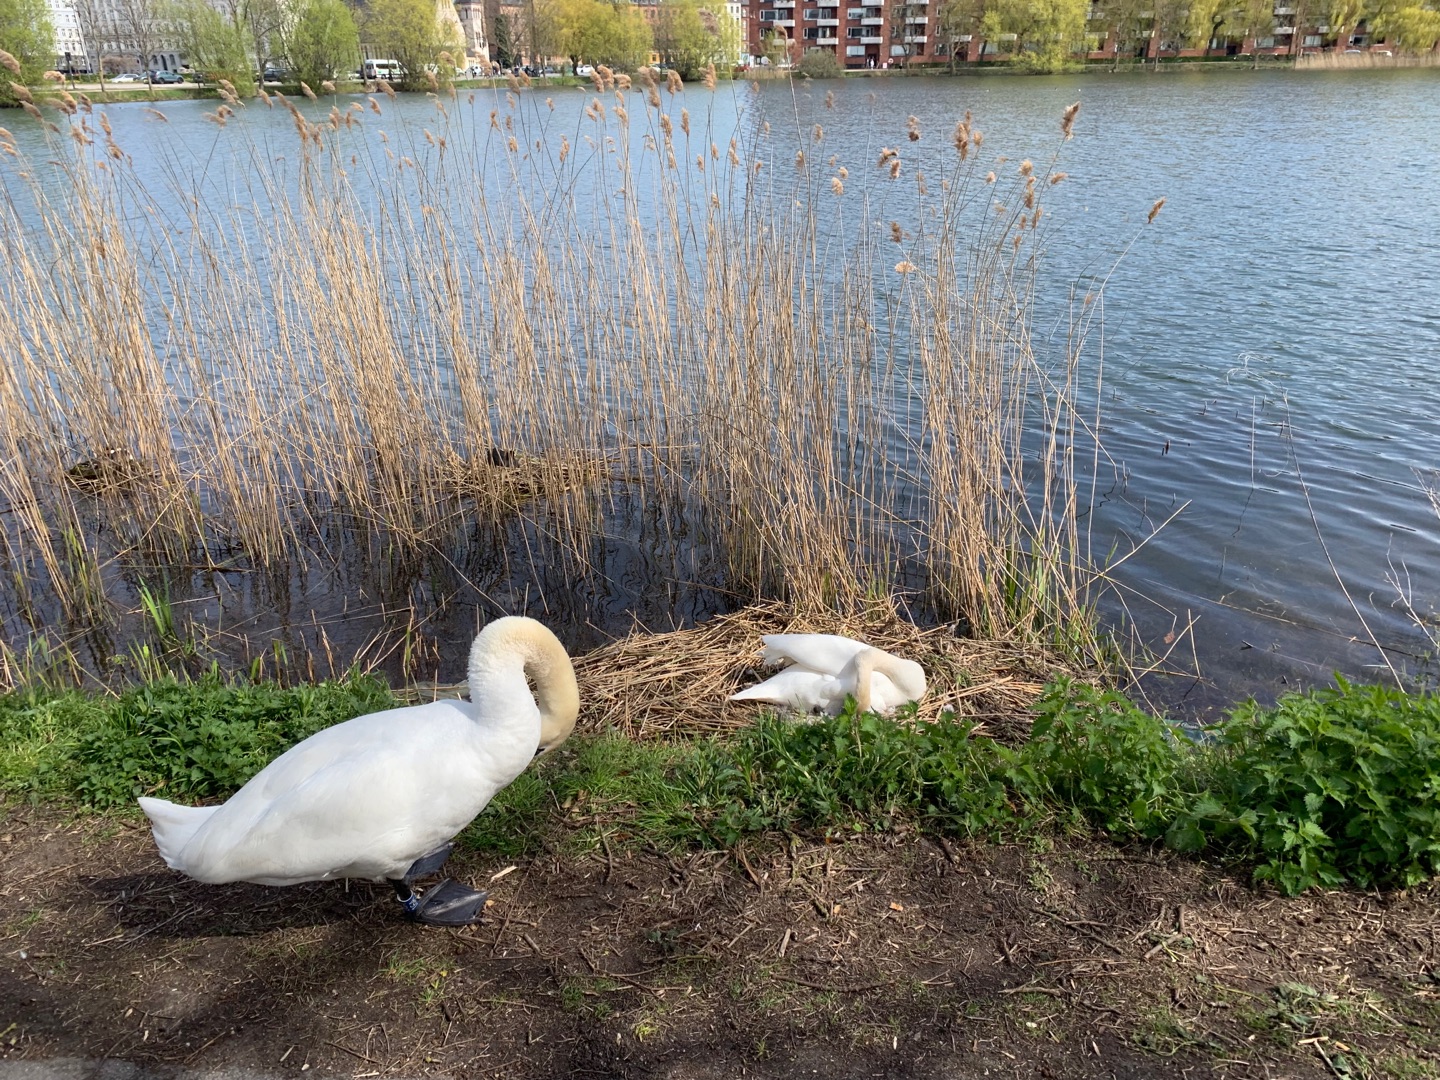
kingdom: Animalia
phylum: Chordata
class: Aves
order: Anseriformes
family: Anatidae
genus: Cygnus
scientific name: Cygnus olor
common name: Knopsvane
